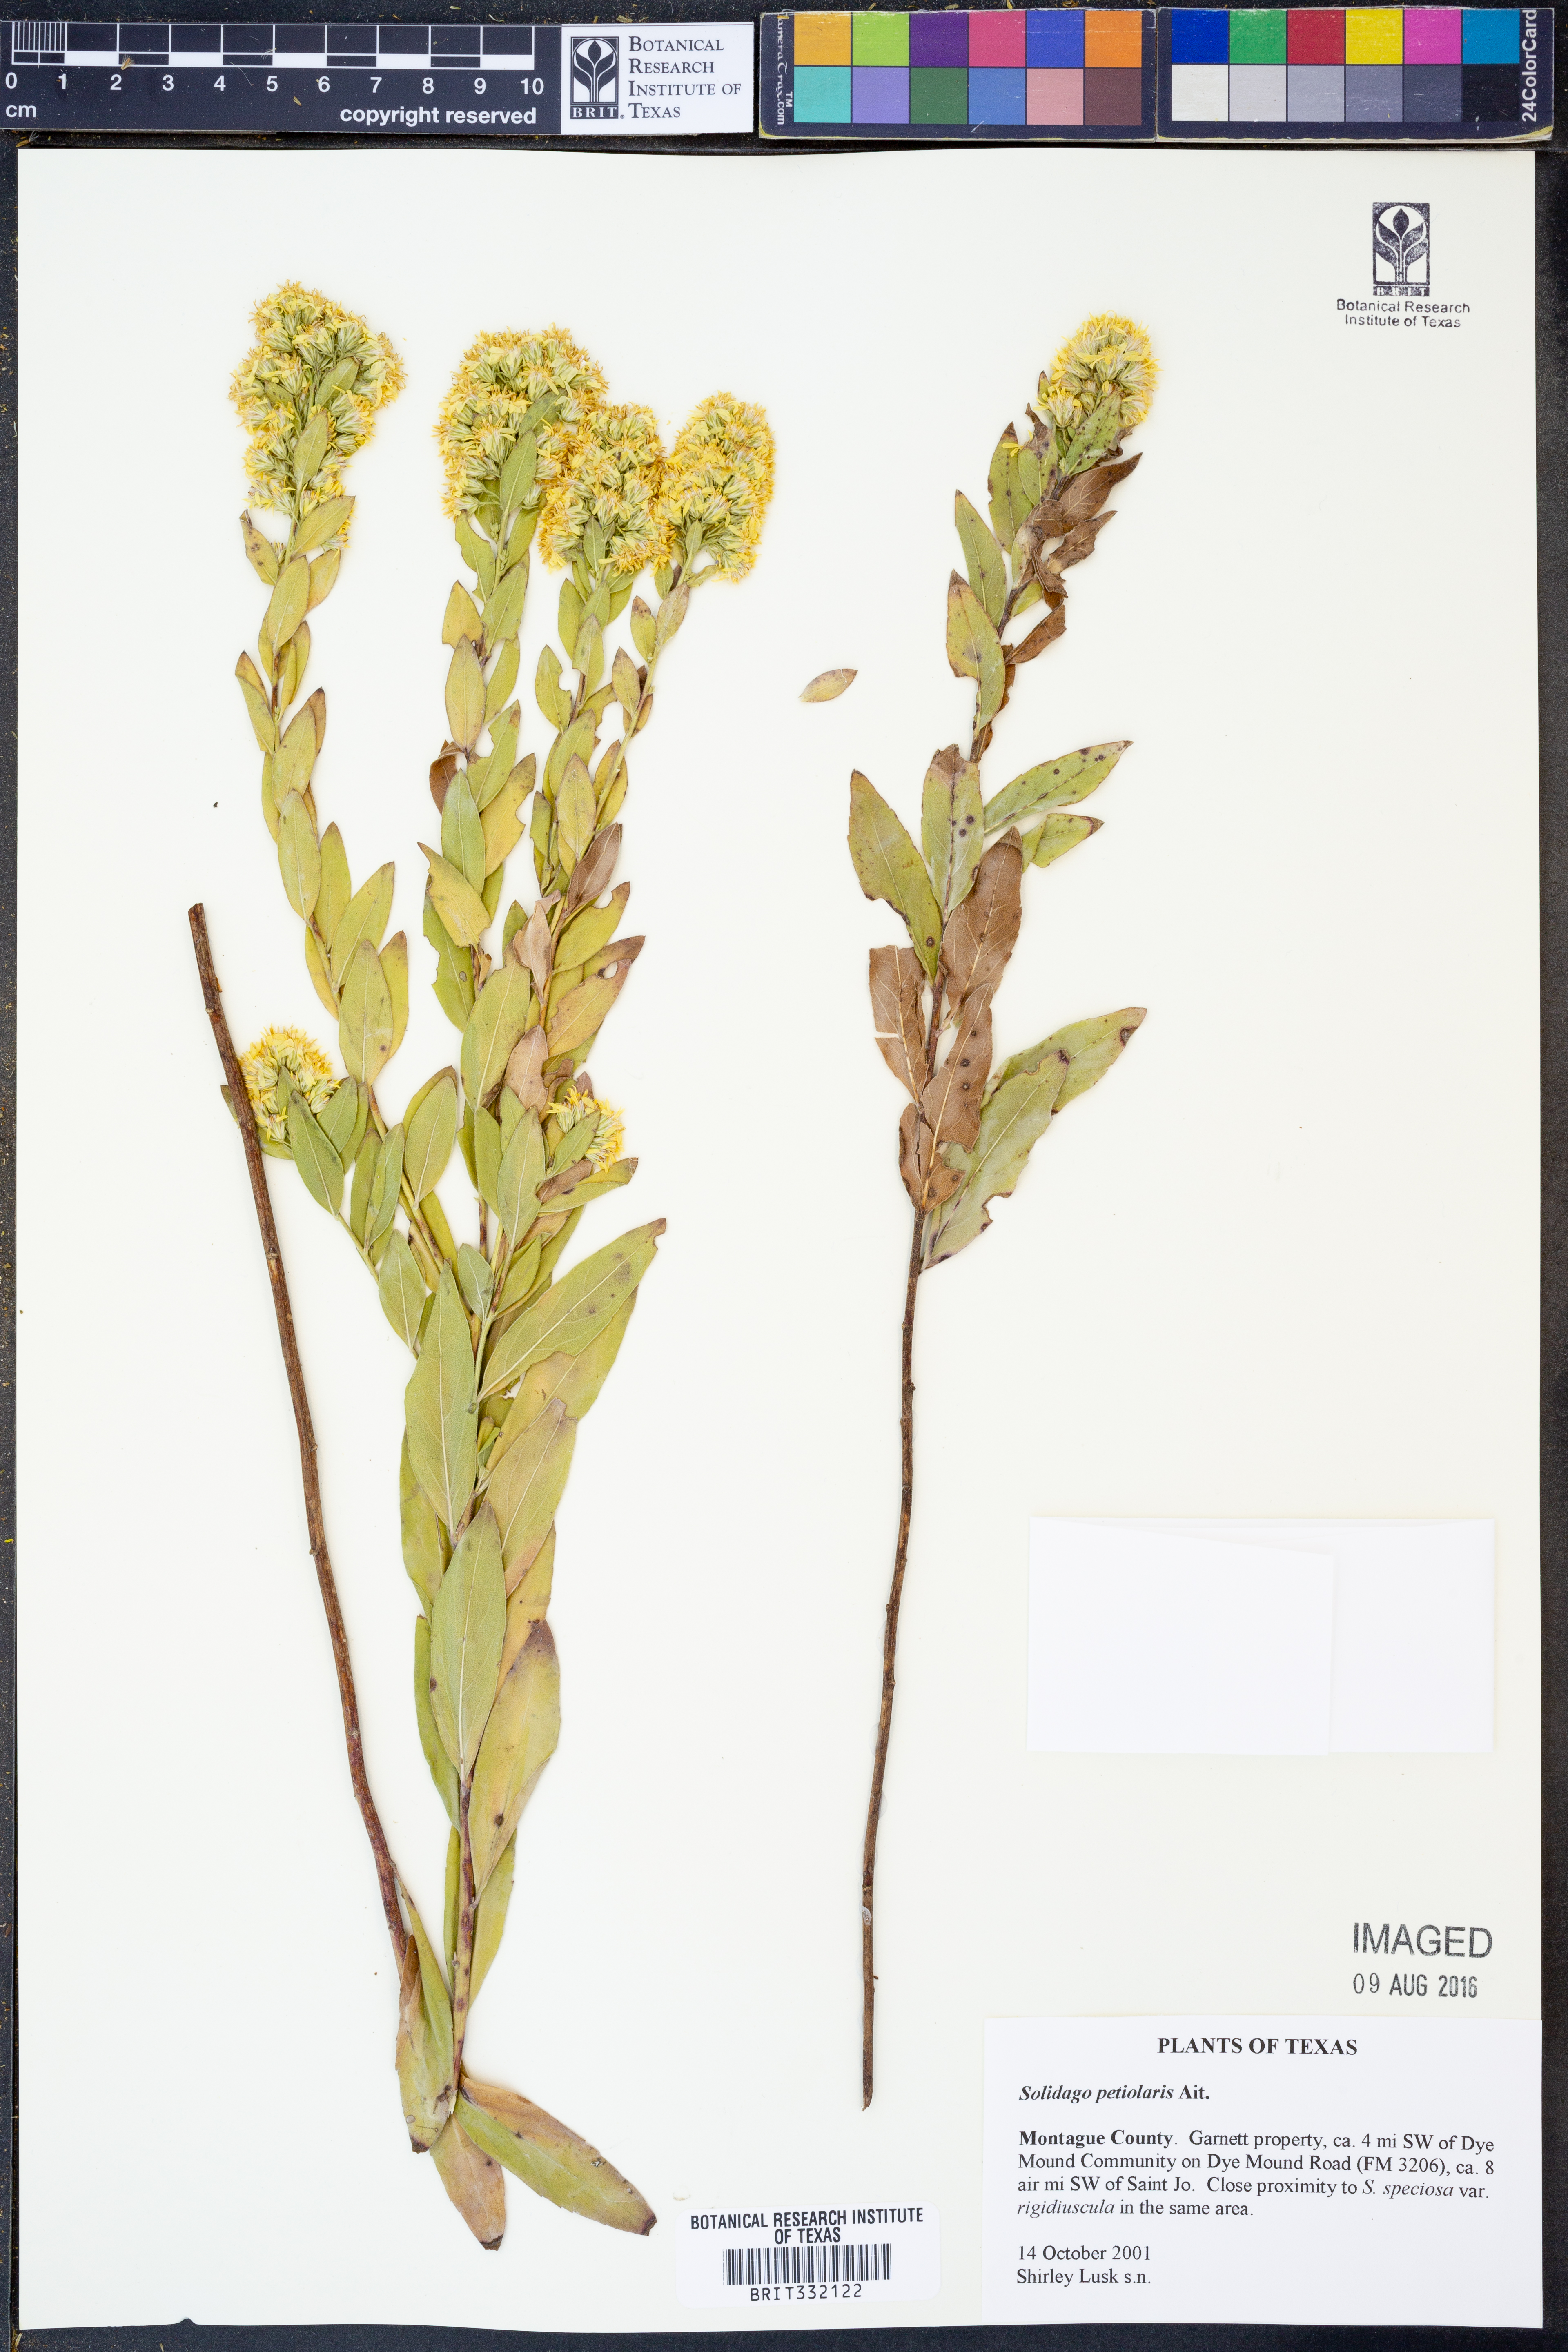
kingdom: Plantae
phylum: Tracheophyta
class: Magnoliopsida
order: Asterales
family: Asteraceae
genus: Solidago
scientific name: Solidago petiolaris
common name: Downy ragged goldenrod
